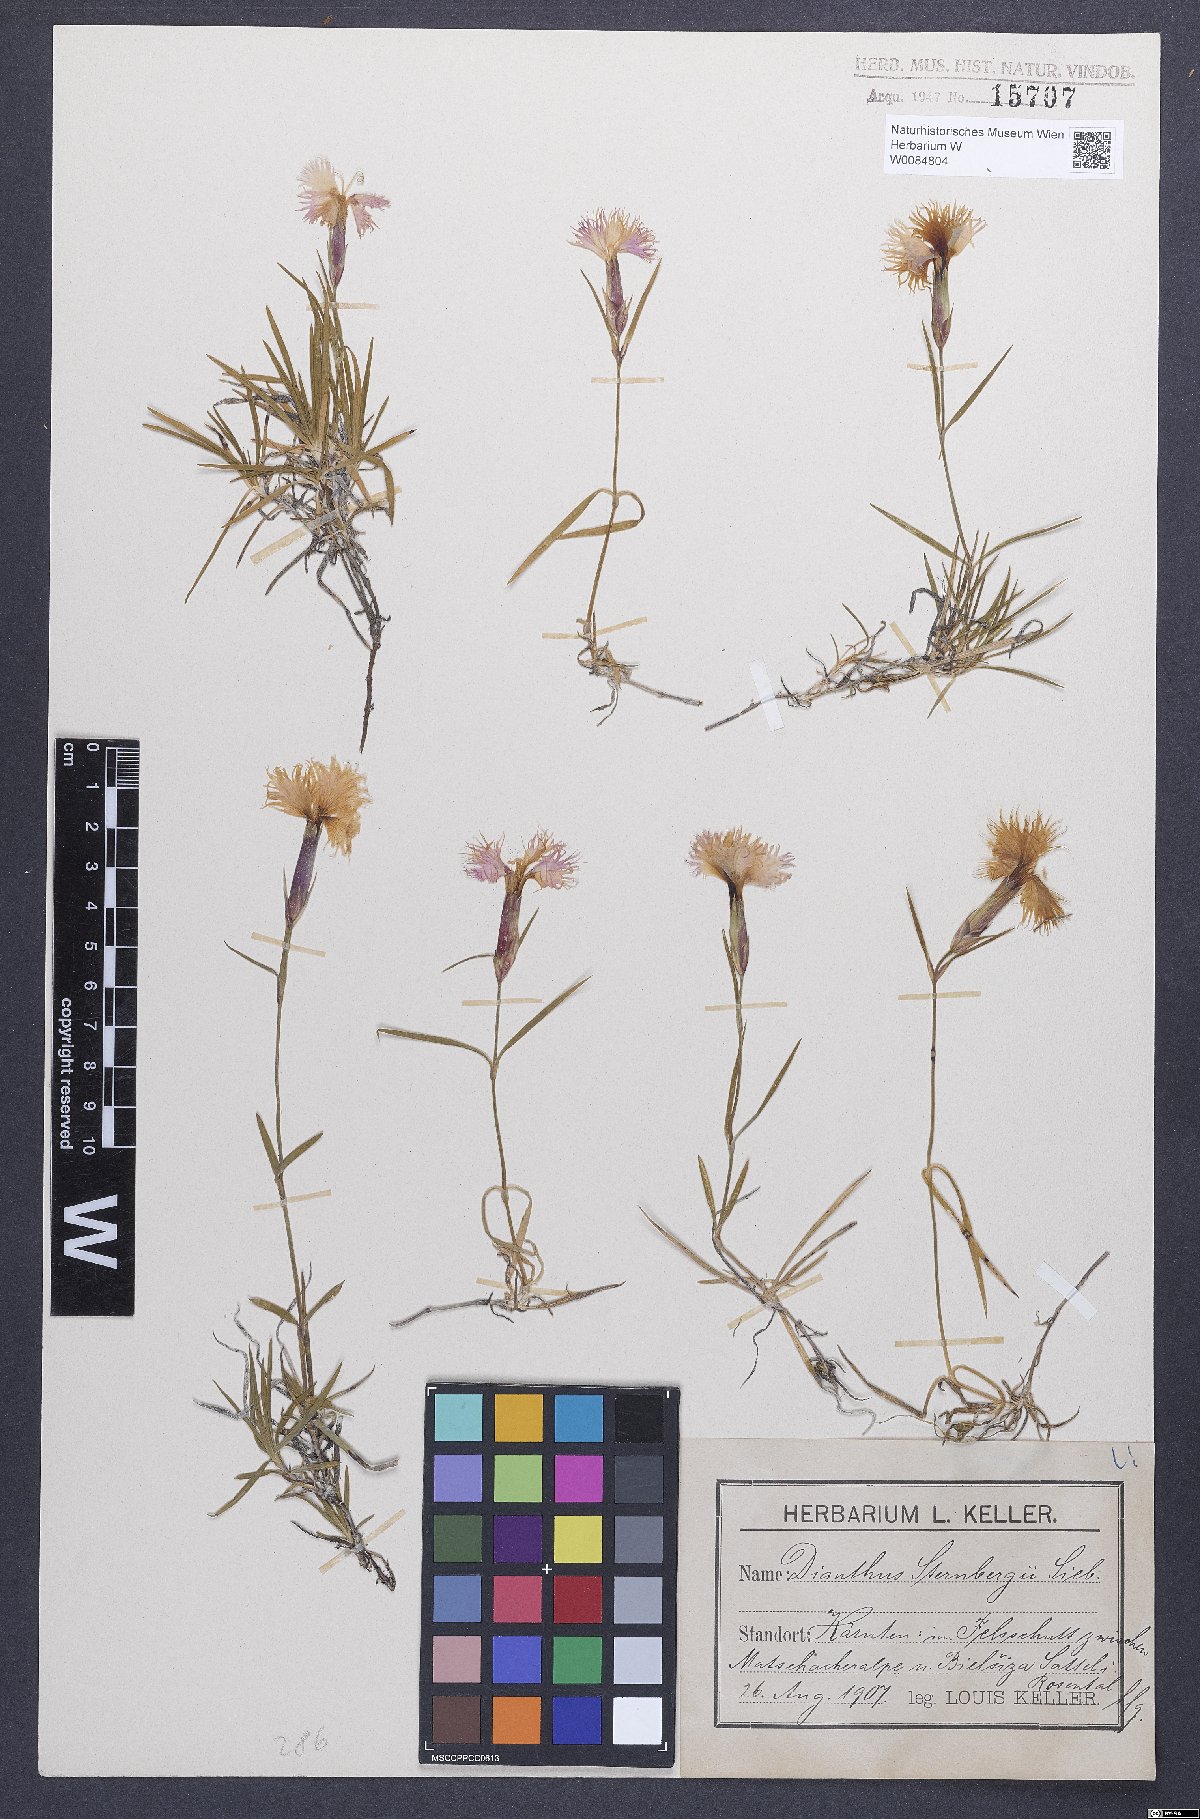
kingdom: Plantae
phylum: Tracheophyta
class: Magnoliopsida
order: Caryophyllales
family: Caryophyllaceae
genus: Dianthus
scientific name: Dianthus monspessulanus
